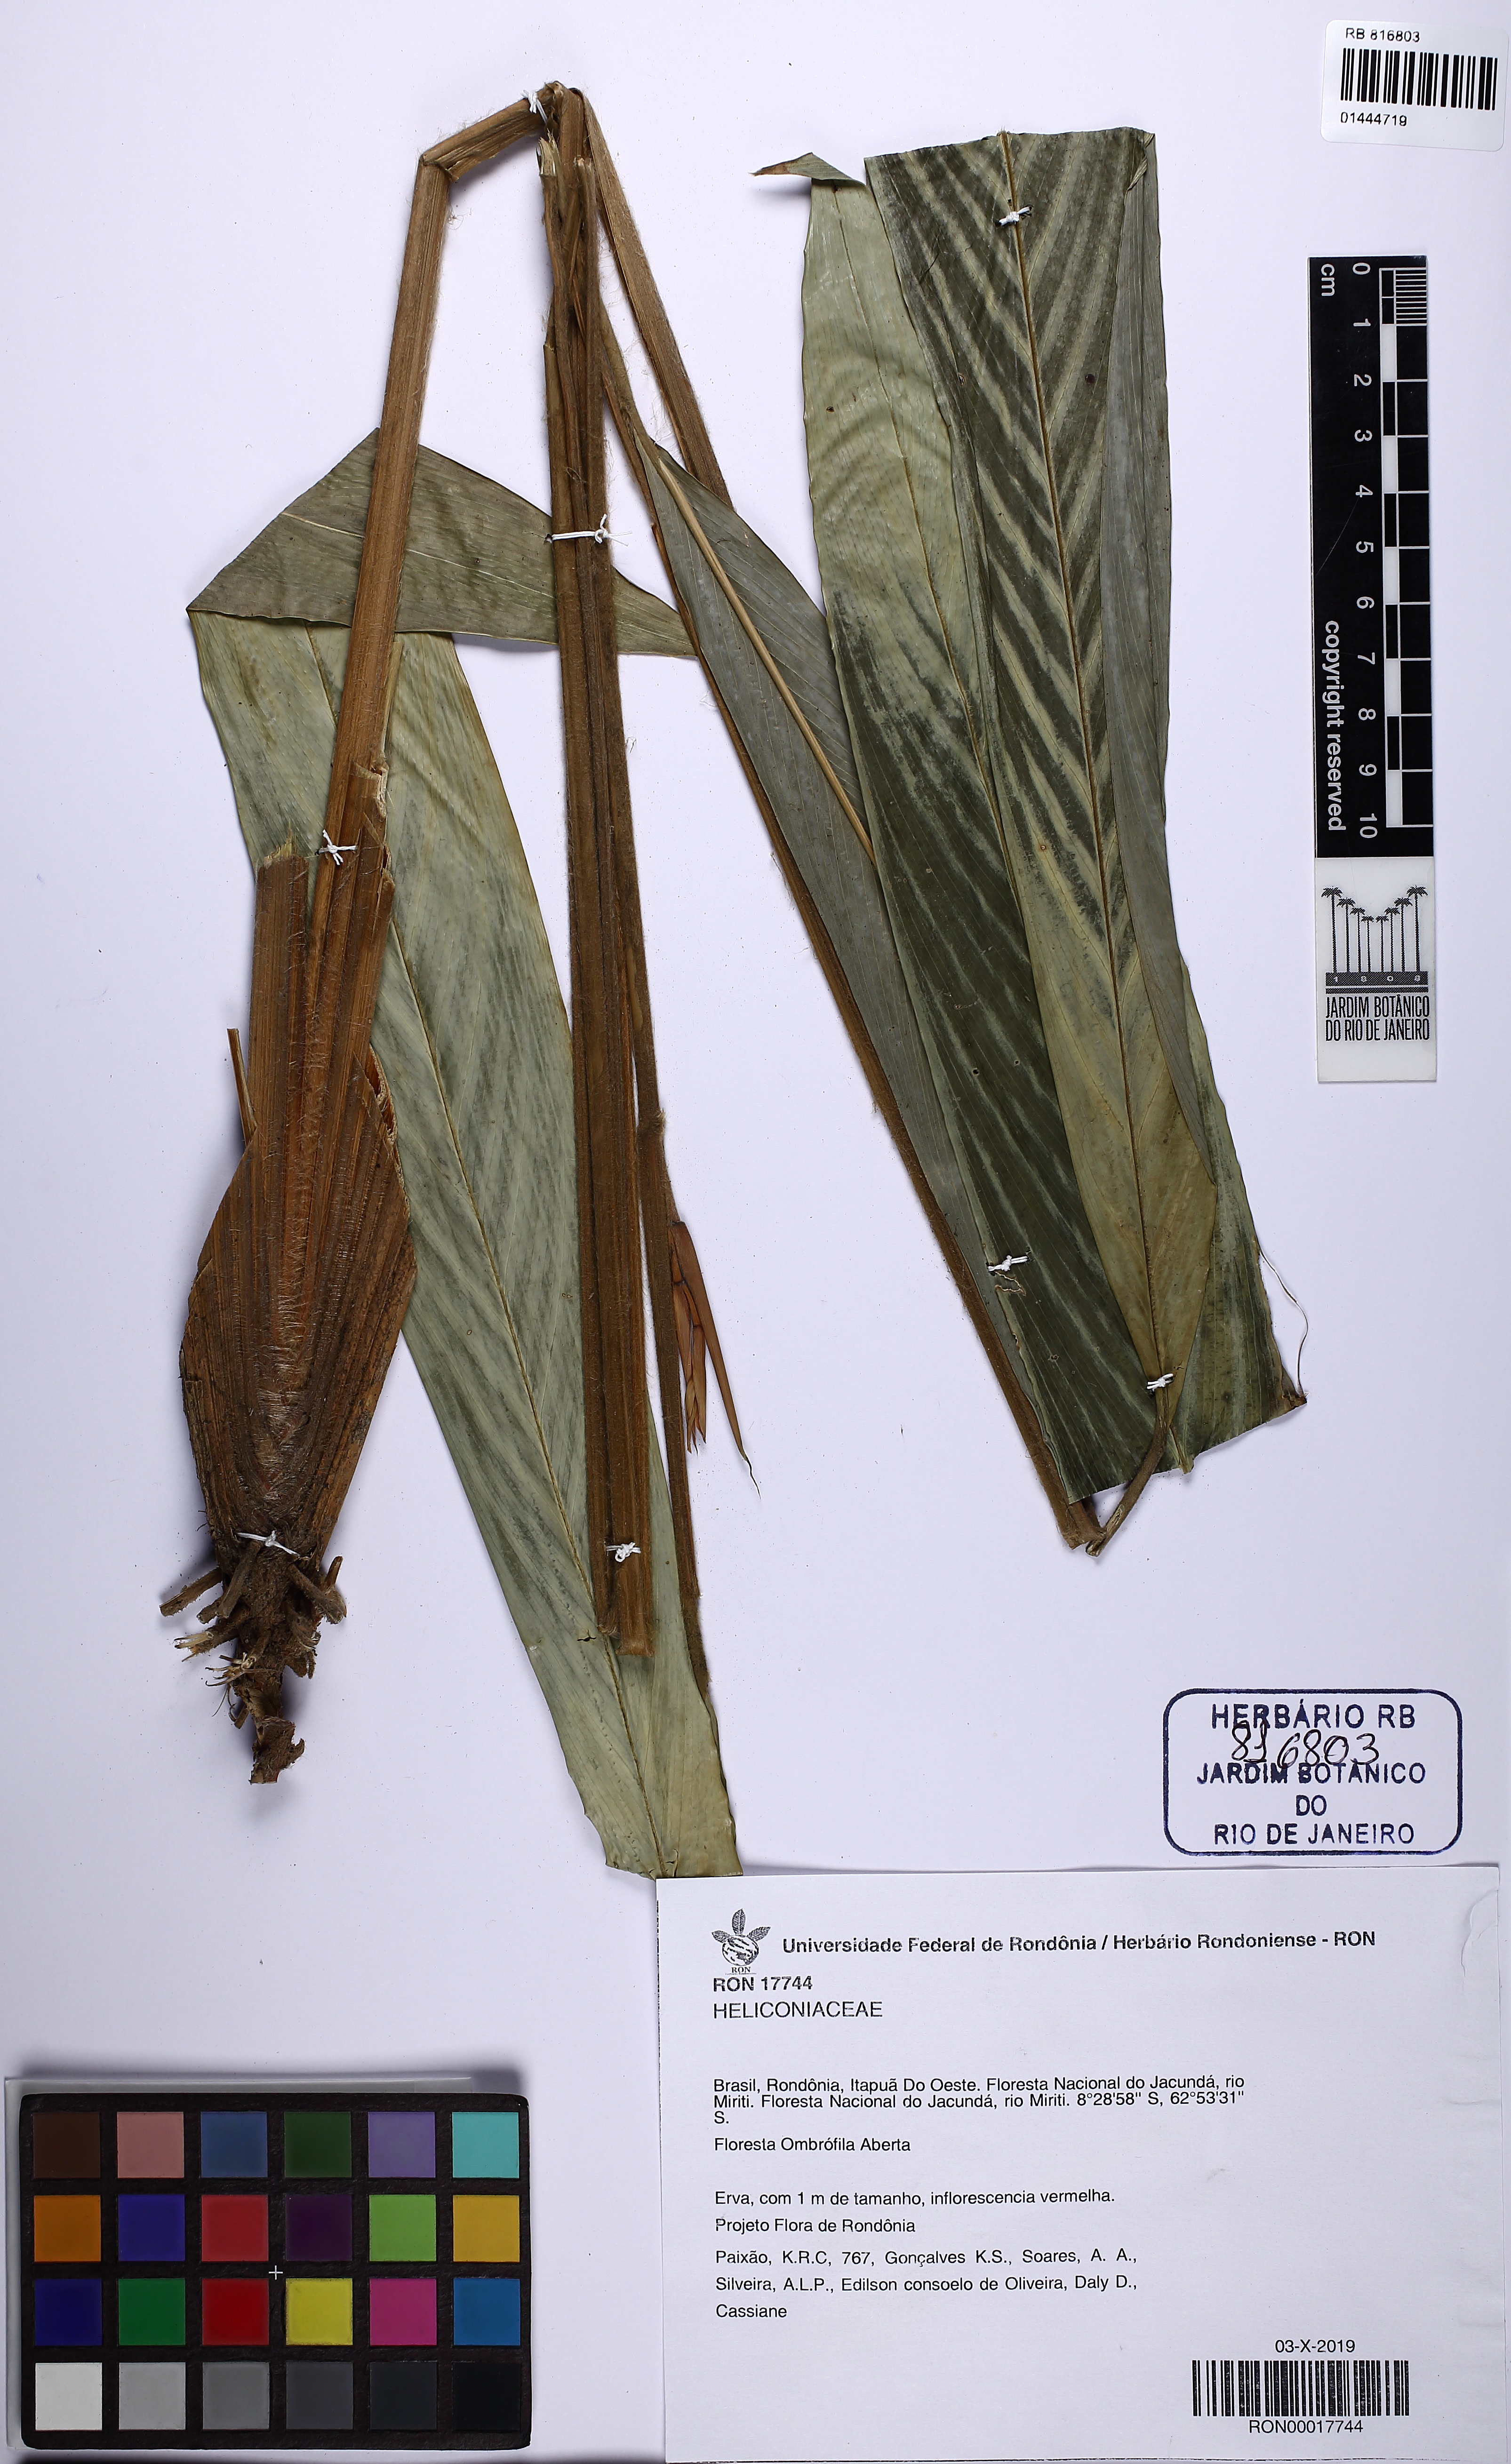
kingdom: Plantae
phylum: Tracheophyta
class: Liliopsida
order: Zingiberales
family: Heliconiaceae
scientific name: Heliconiaceae
